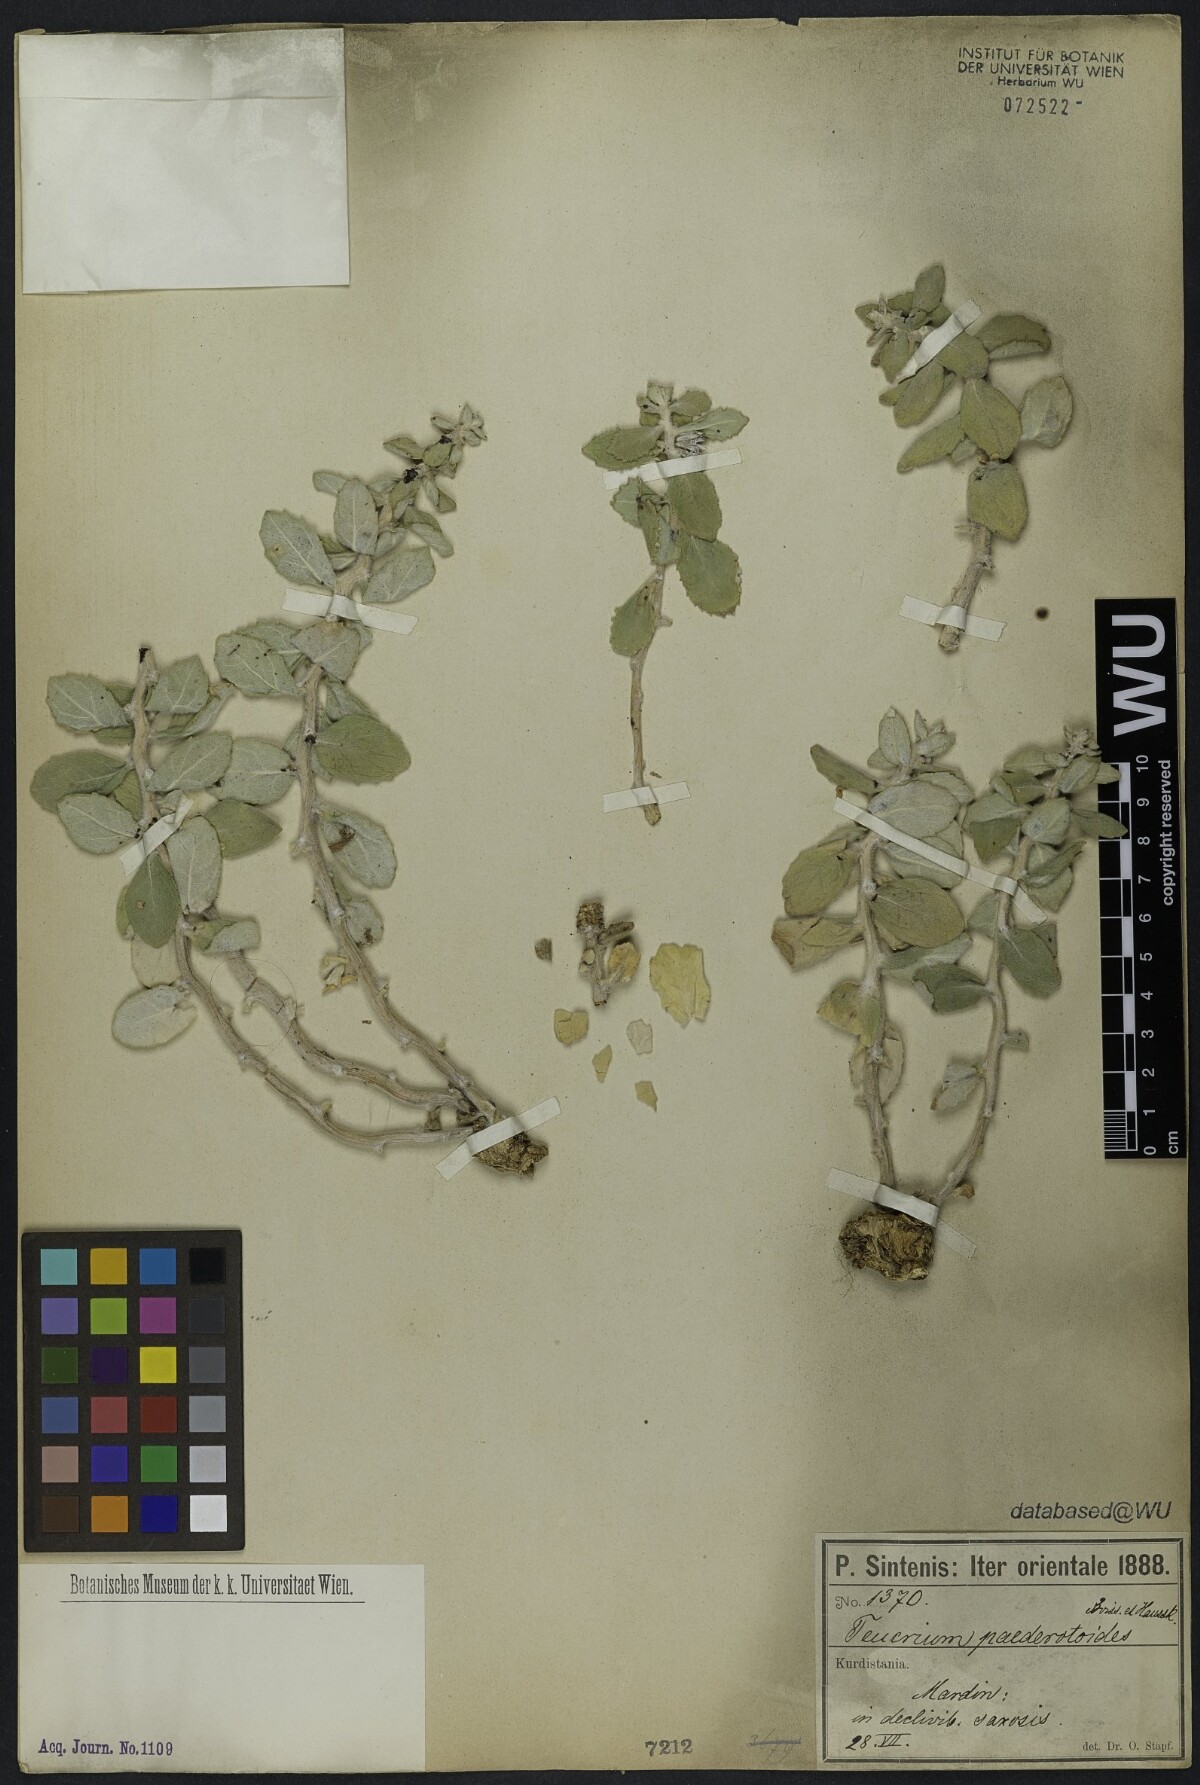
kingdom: Plantae
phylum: Tracheophyta
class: Magnoliopsida
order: Lamiales
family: Lamiaceae
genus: Teucrium
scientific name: Teucrium paederotoides
